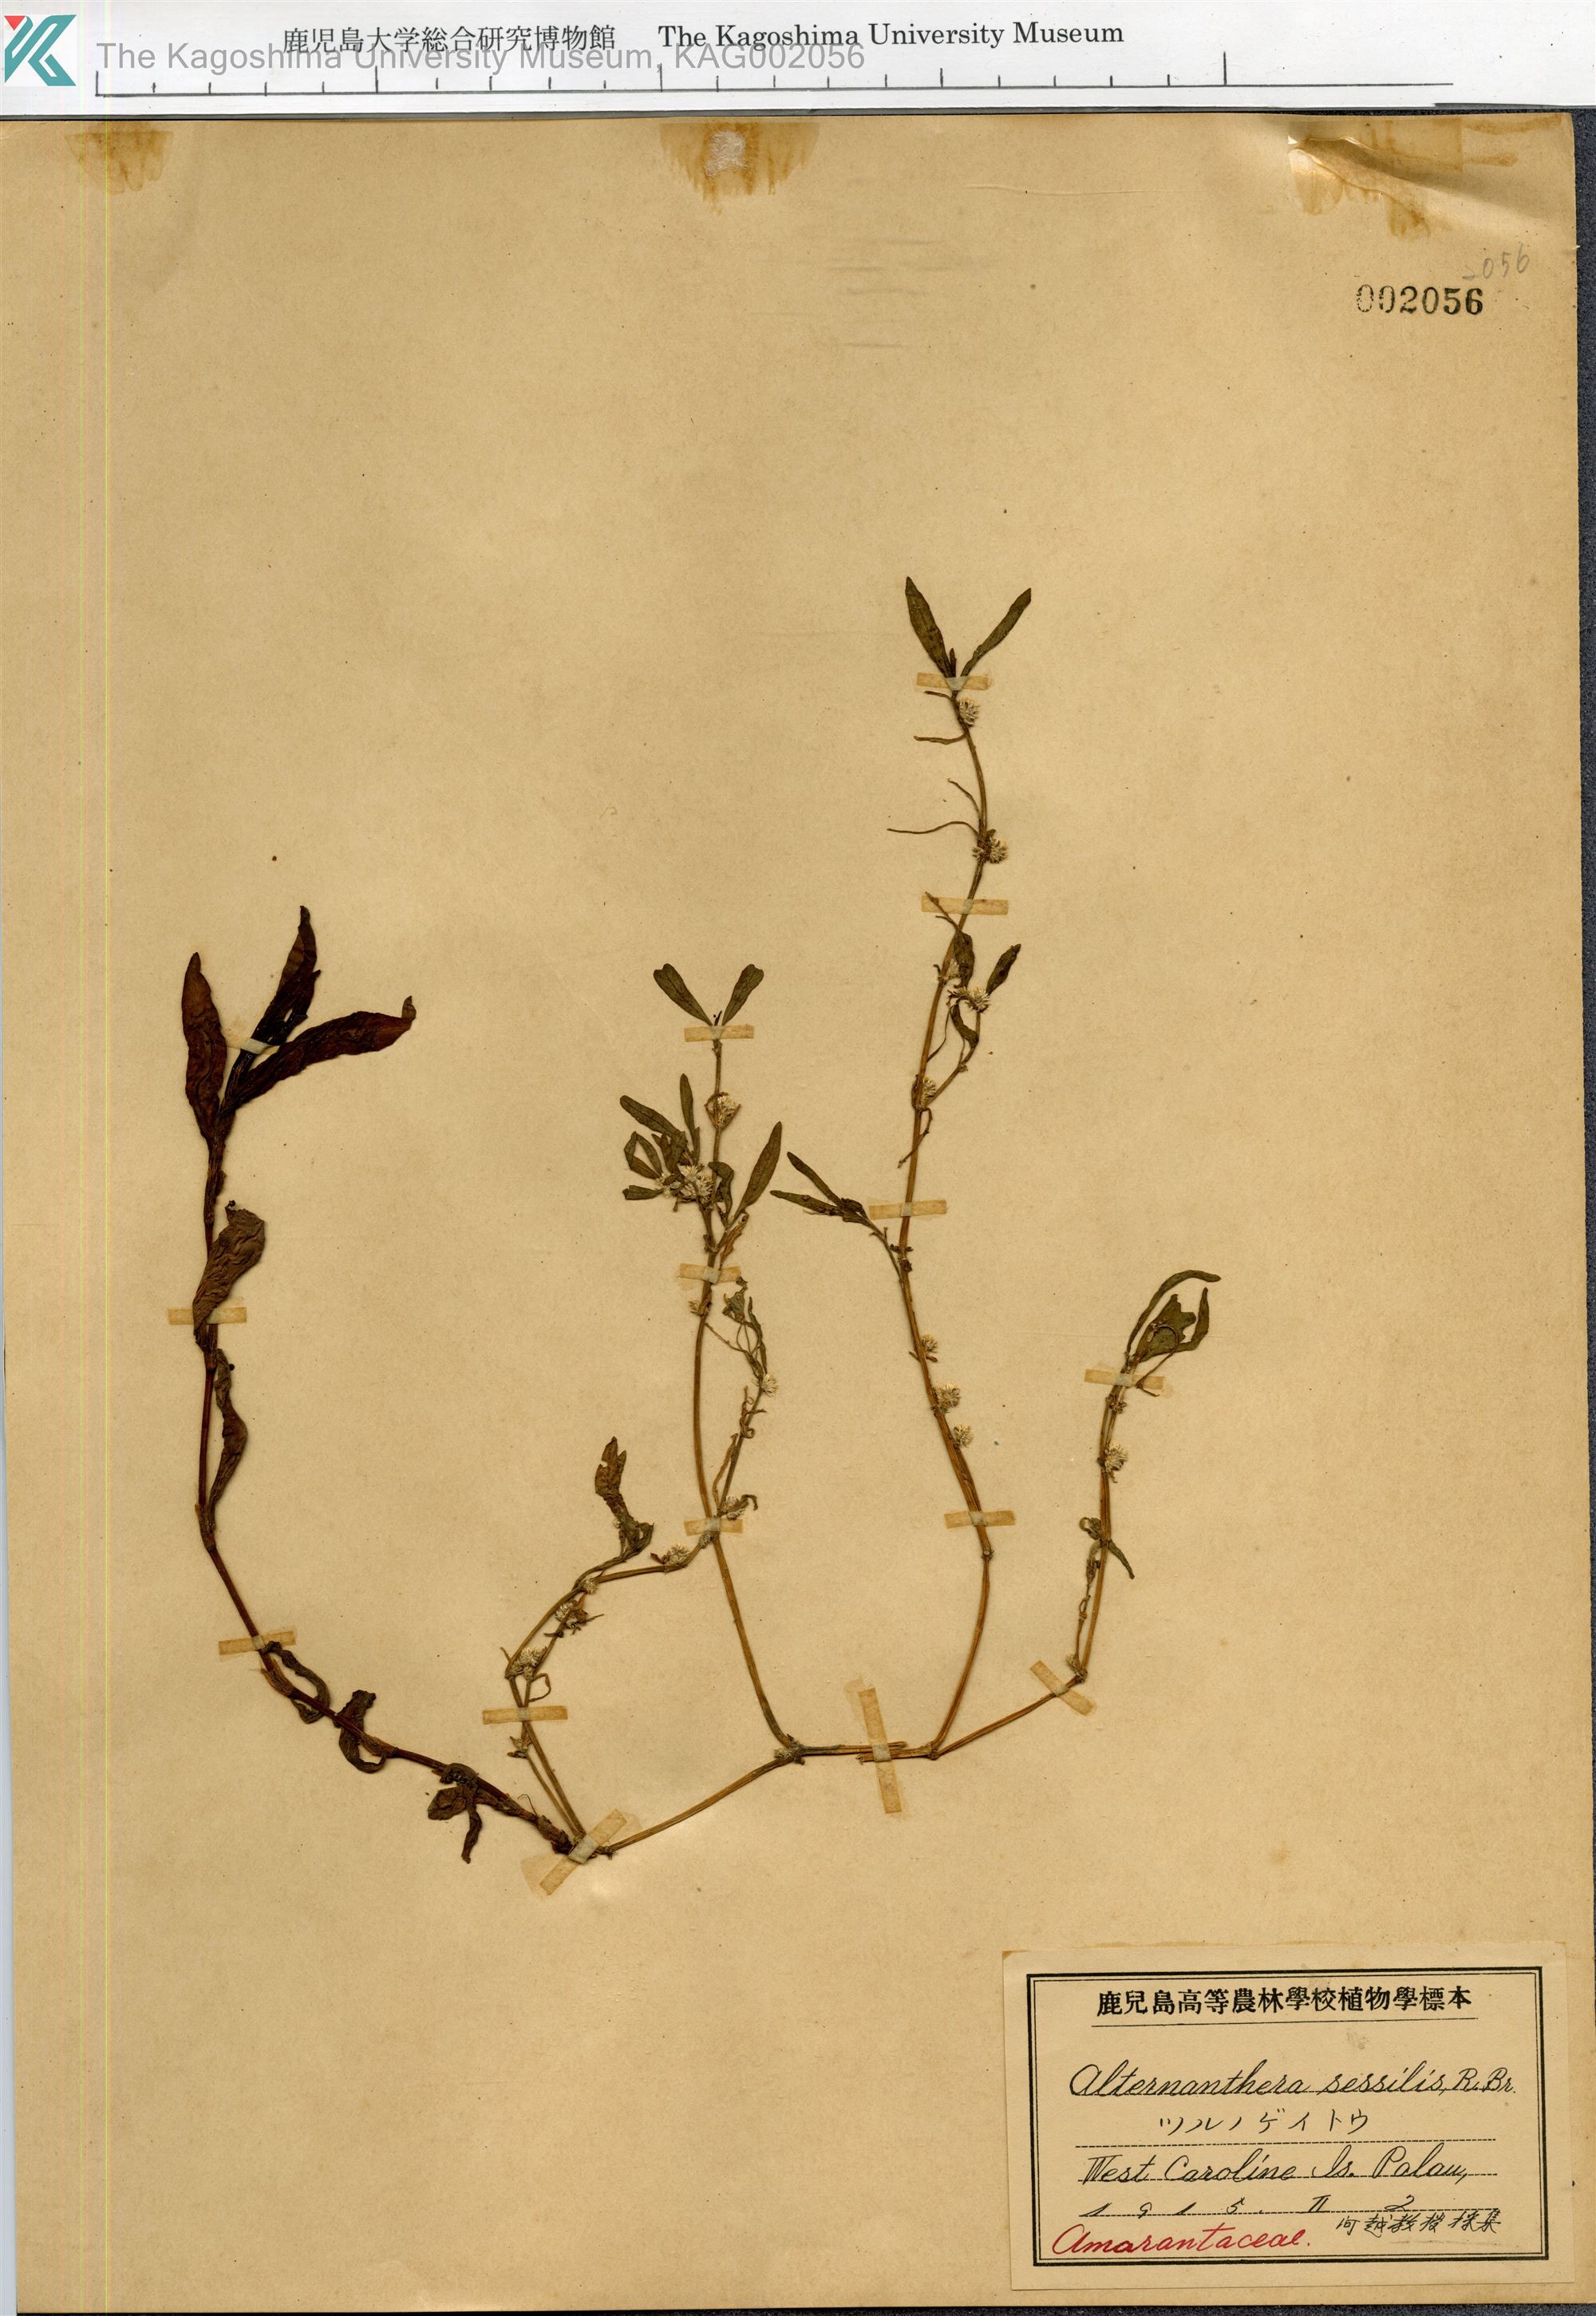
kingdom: Plantae
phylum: Tracheophyta
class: Magnoliopsida
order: Caryophyllales
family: Amaranthaceae
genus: Alternanthera
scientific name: Alternanthera sessilis
